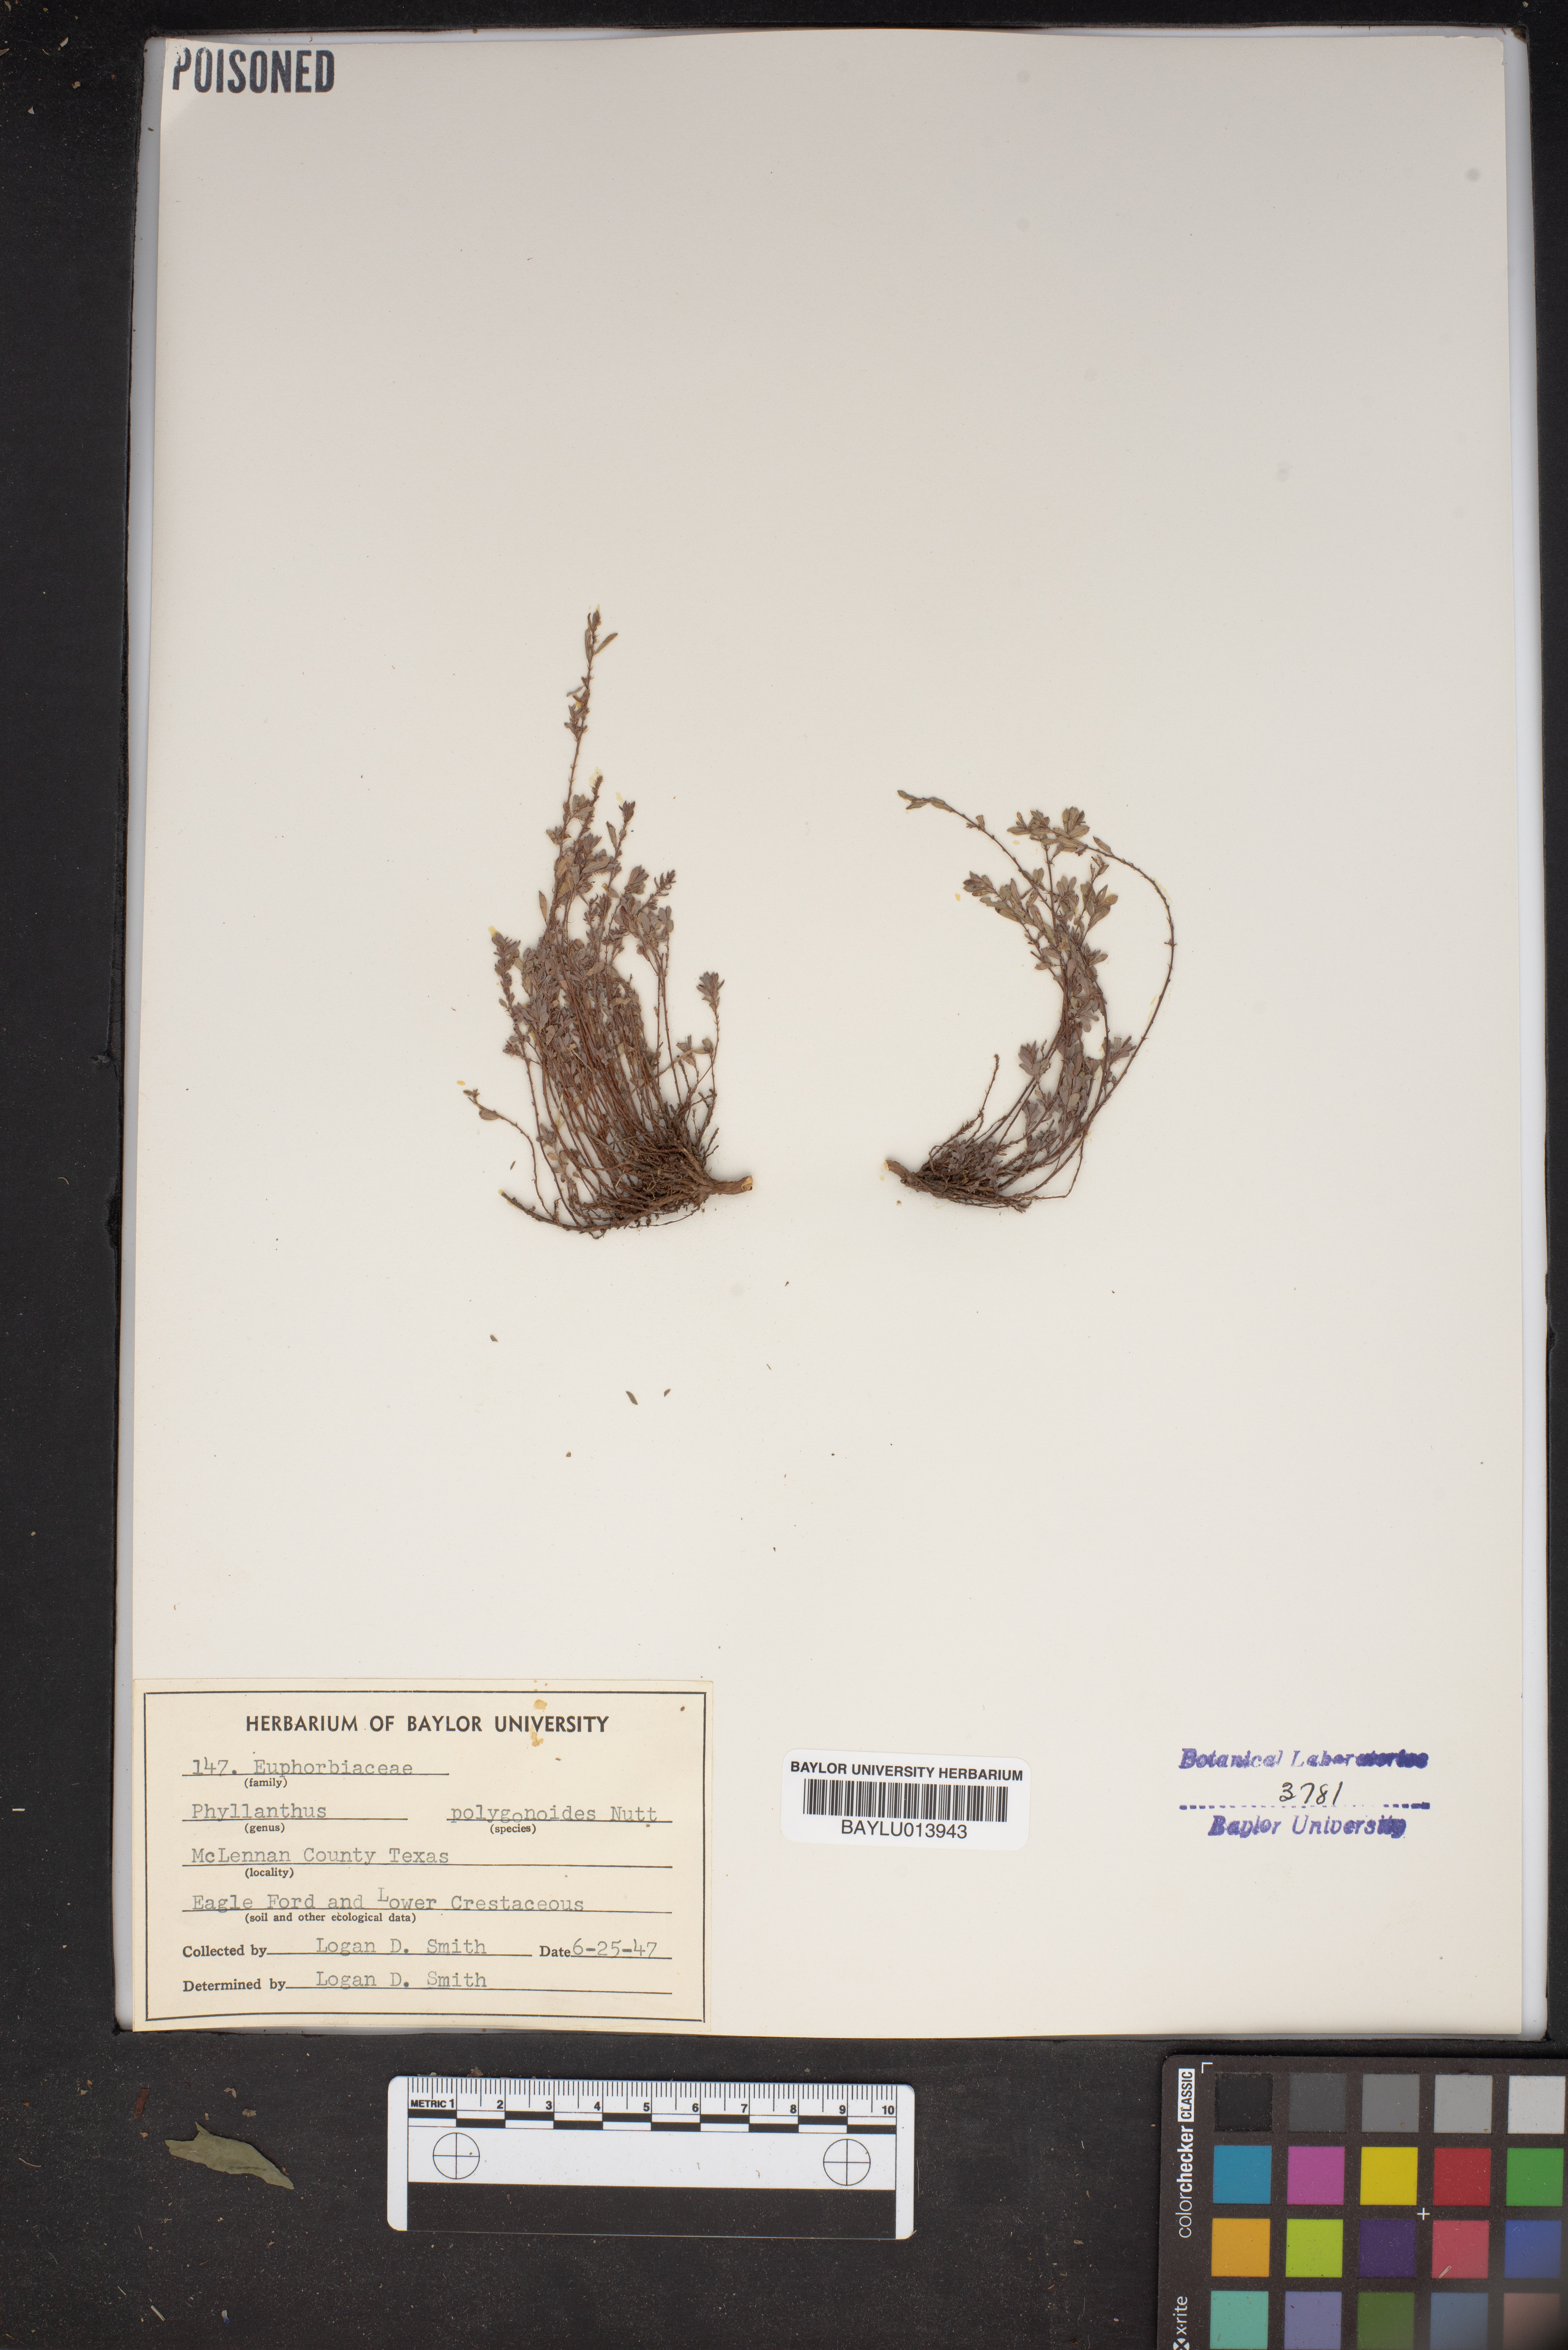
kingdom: Plantae
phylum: Tracheophyta
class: Magnoliopsida
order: Malpighiales
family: Phyllanthaceae
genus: Phyllanthus
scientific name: Phyllanthus polygonoides
